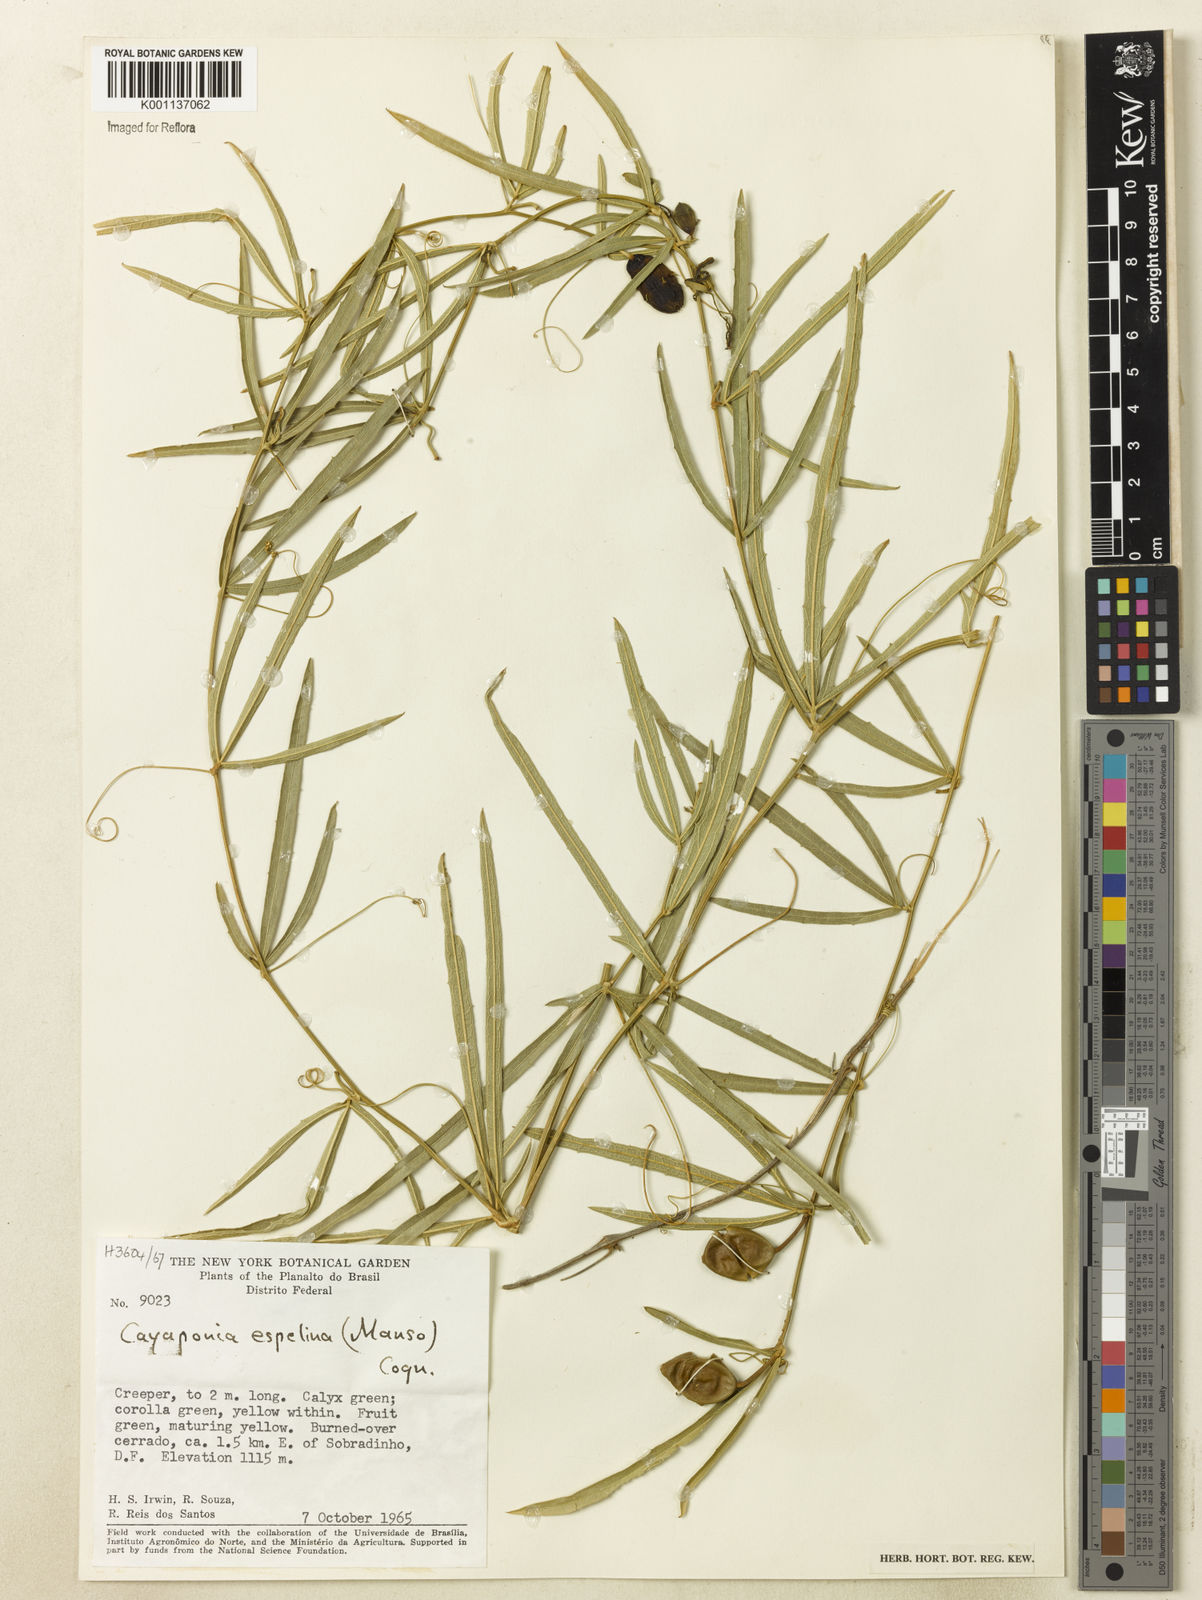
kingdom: Plantae
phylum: Tracheophyta
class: Magnoliopsida
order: Cucurbitales
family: Cucurbitaceae
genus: Cayaponia
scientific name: Cayaponia espelina
